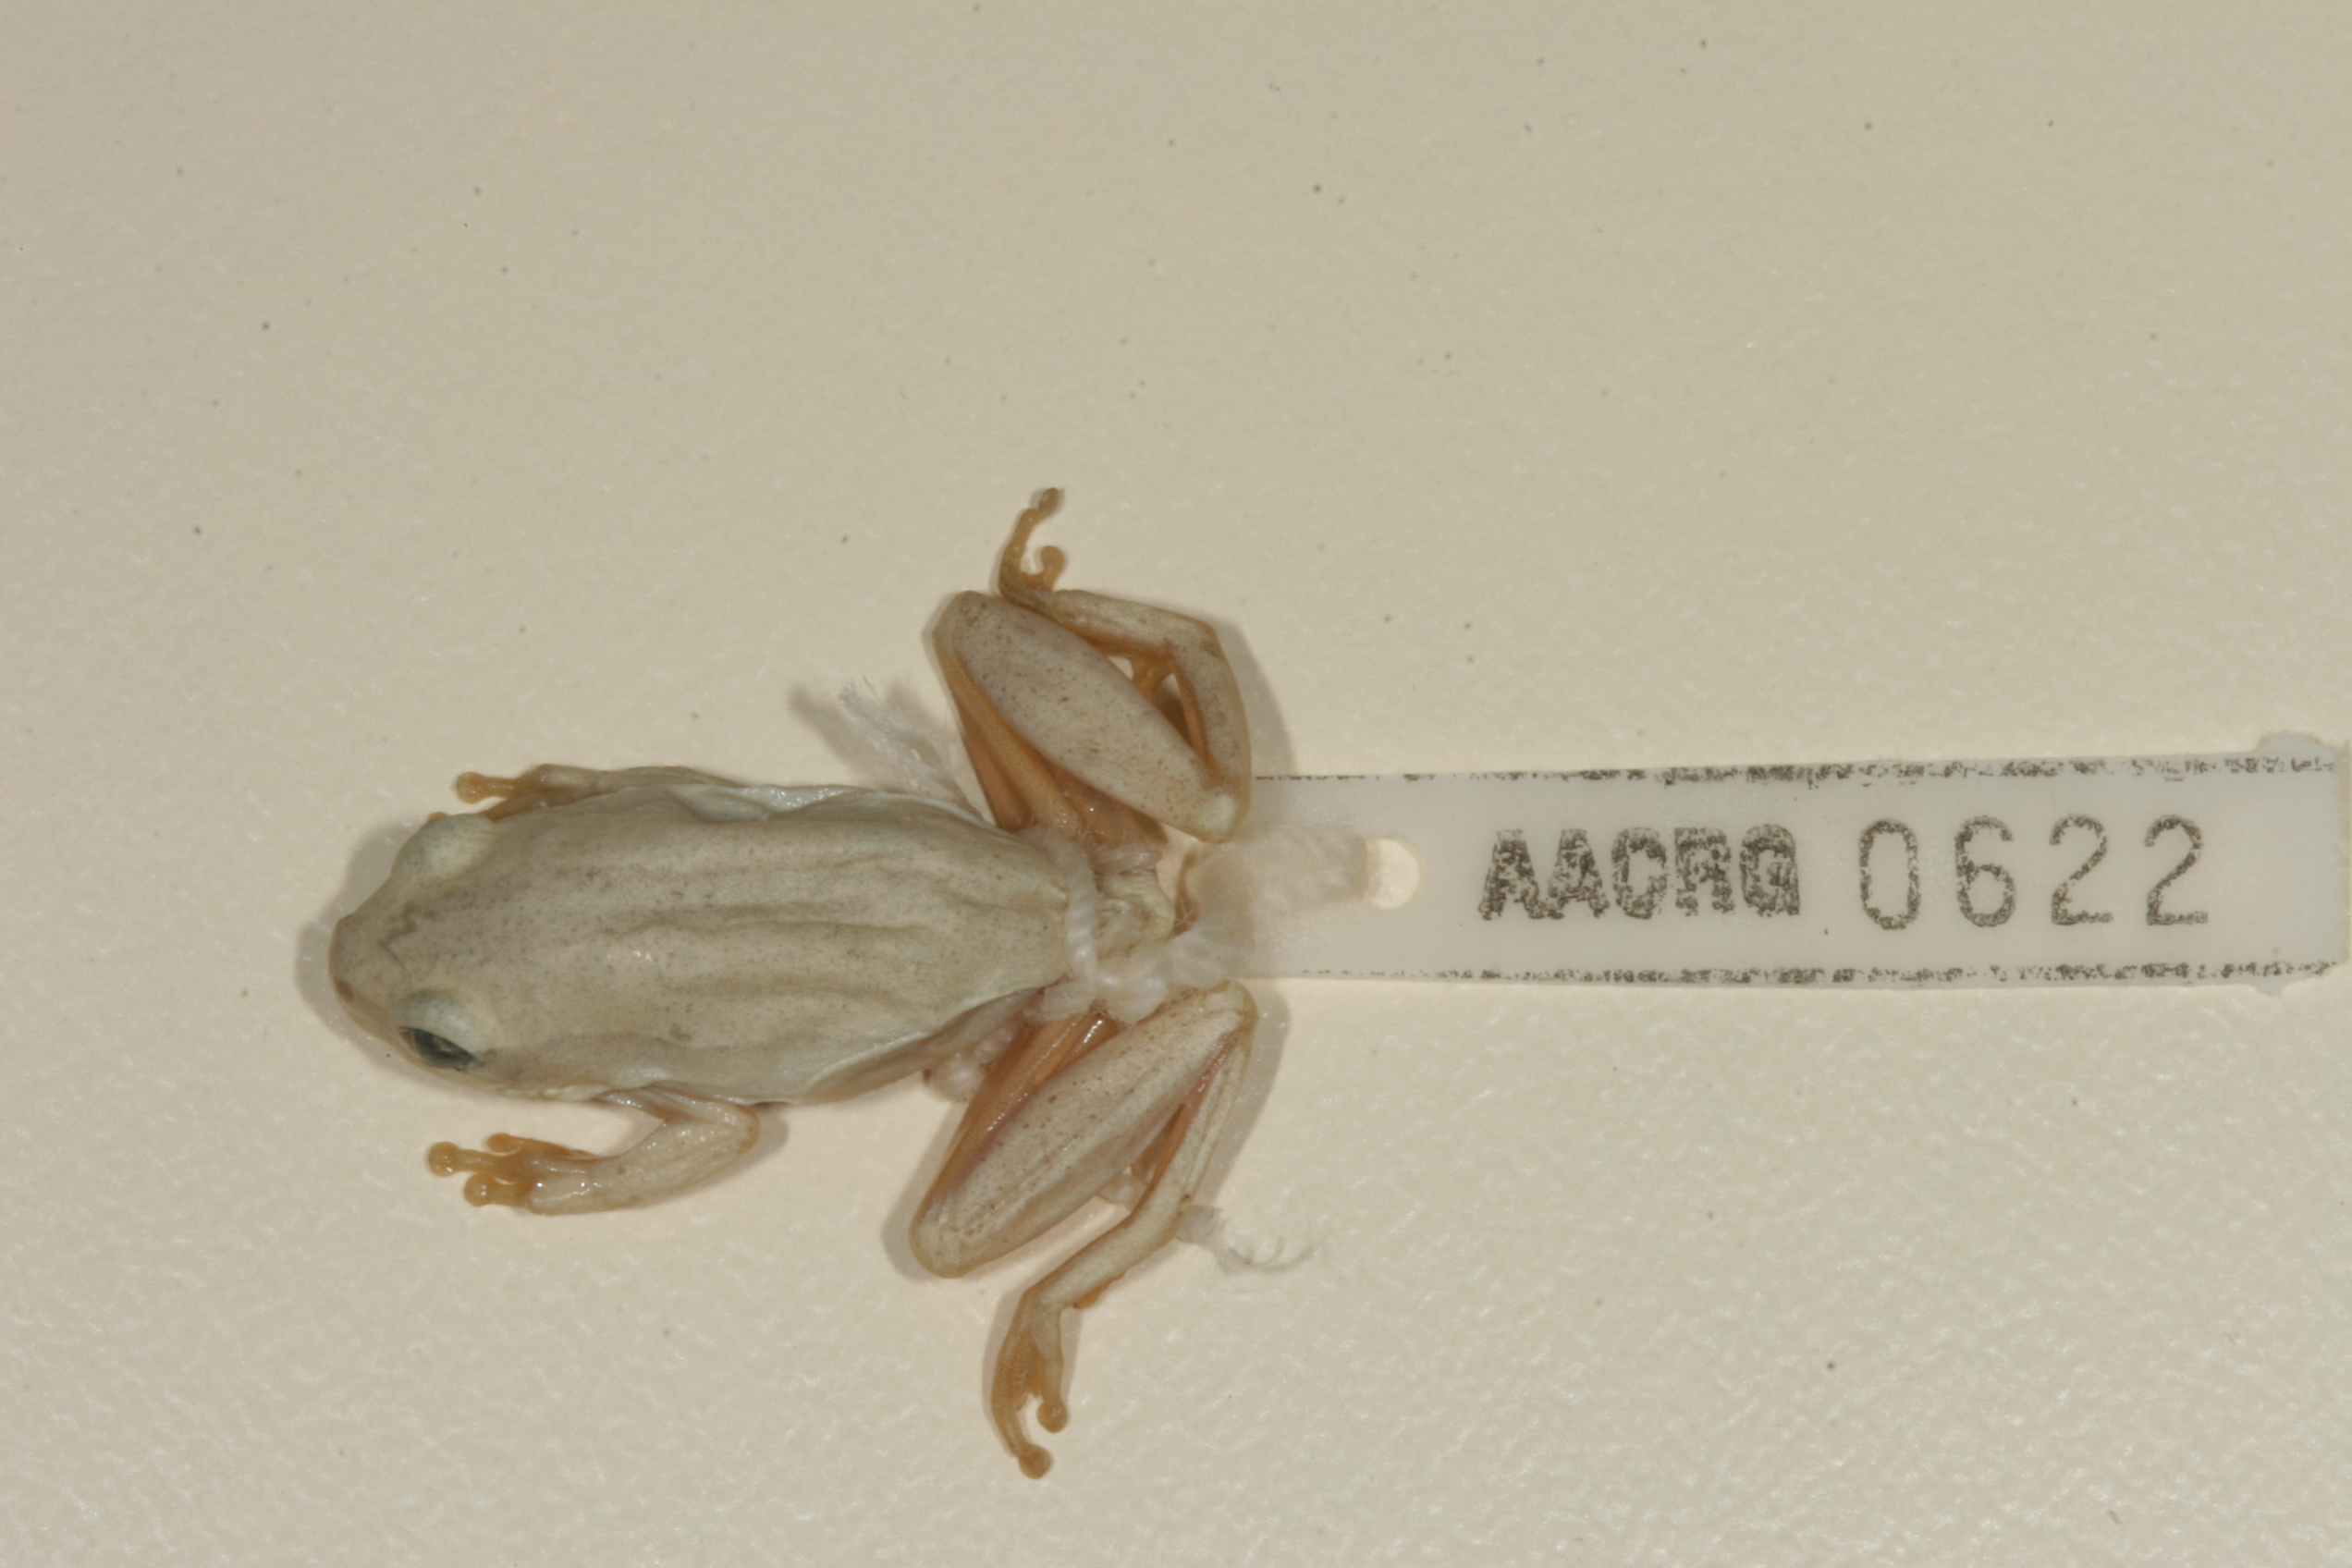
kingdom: Animalia
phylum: Chordata
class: Amphibia
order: Anura
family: Hyperoliidae
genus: Hyperolius
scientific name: Hyperolius marmoratus
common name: Painted reed frog
